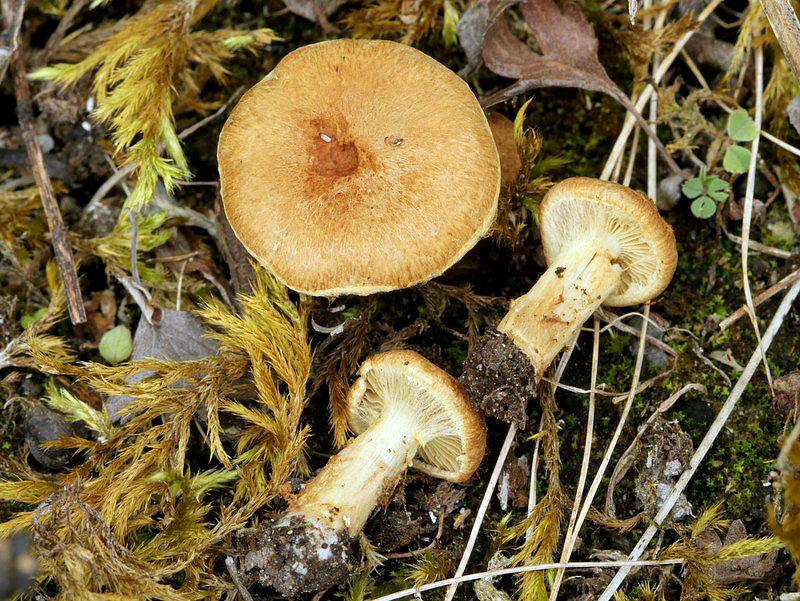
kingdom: Fungi
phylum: Basidiomycota
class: Agaricomycetes
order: Agaricales
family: Inocybaceae
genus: Mallocybe
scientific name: Mallocybe plebeia
